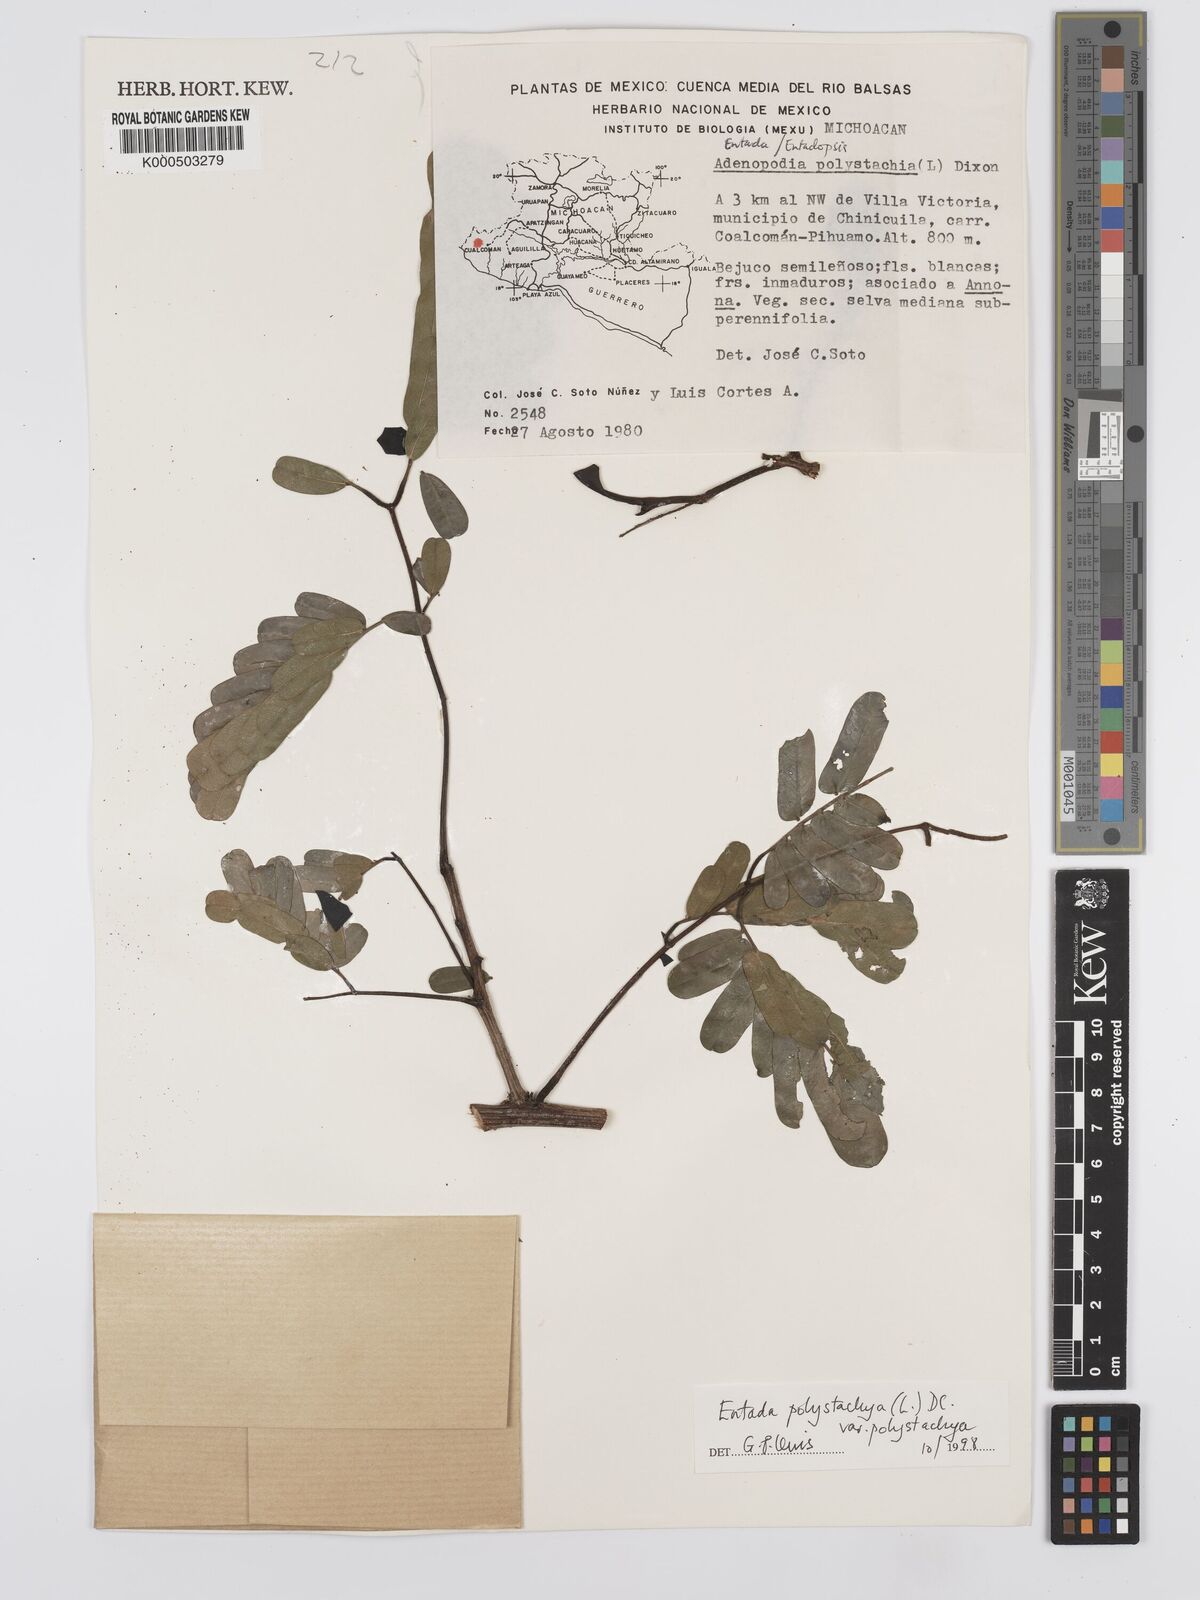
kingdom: Plantae
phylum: Tracheophyta
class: Magnoliopsida
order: Fabales
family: Fabaceae
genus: Entada
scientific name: Entada polystachya
